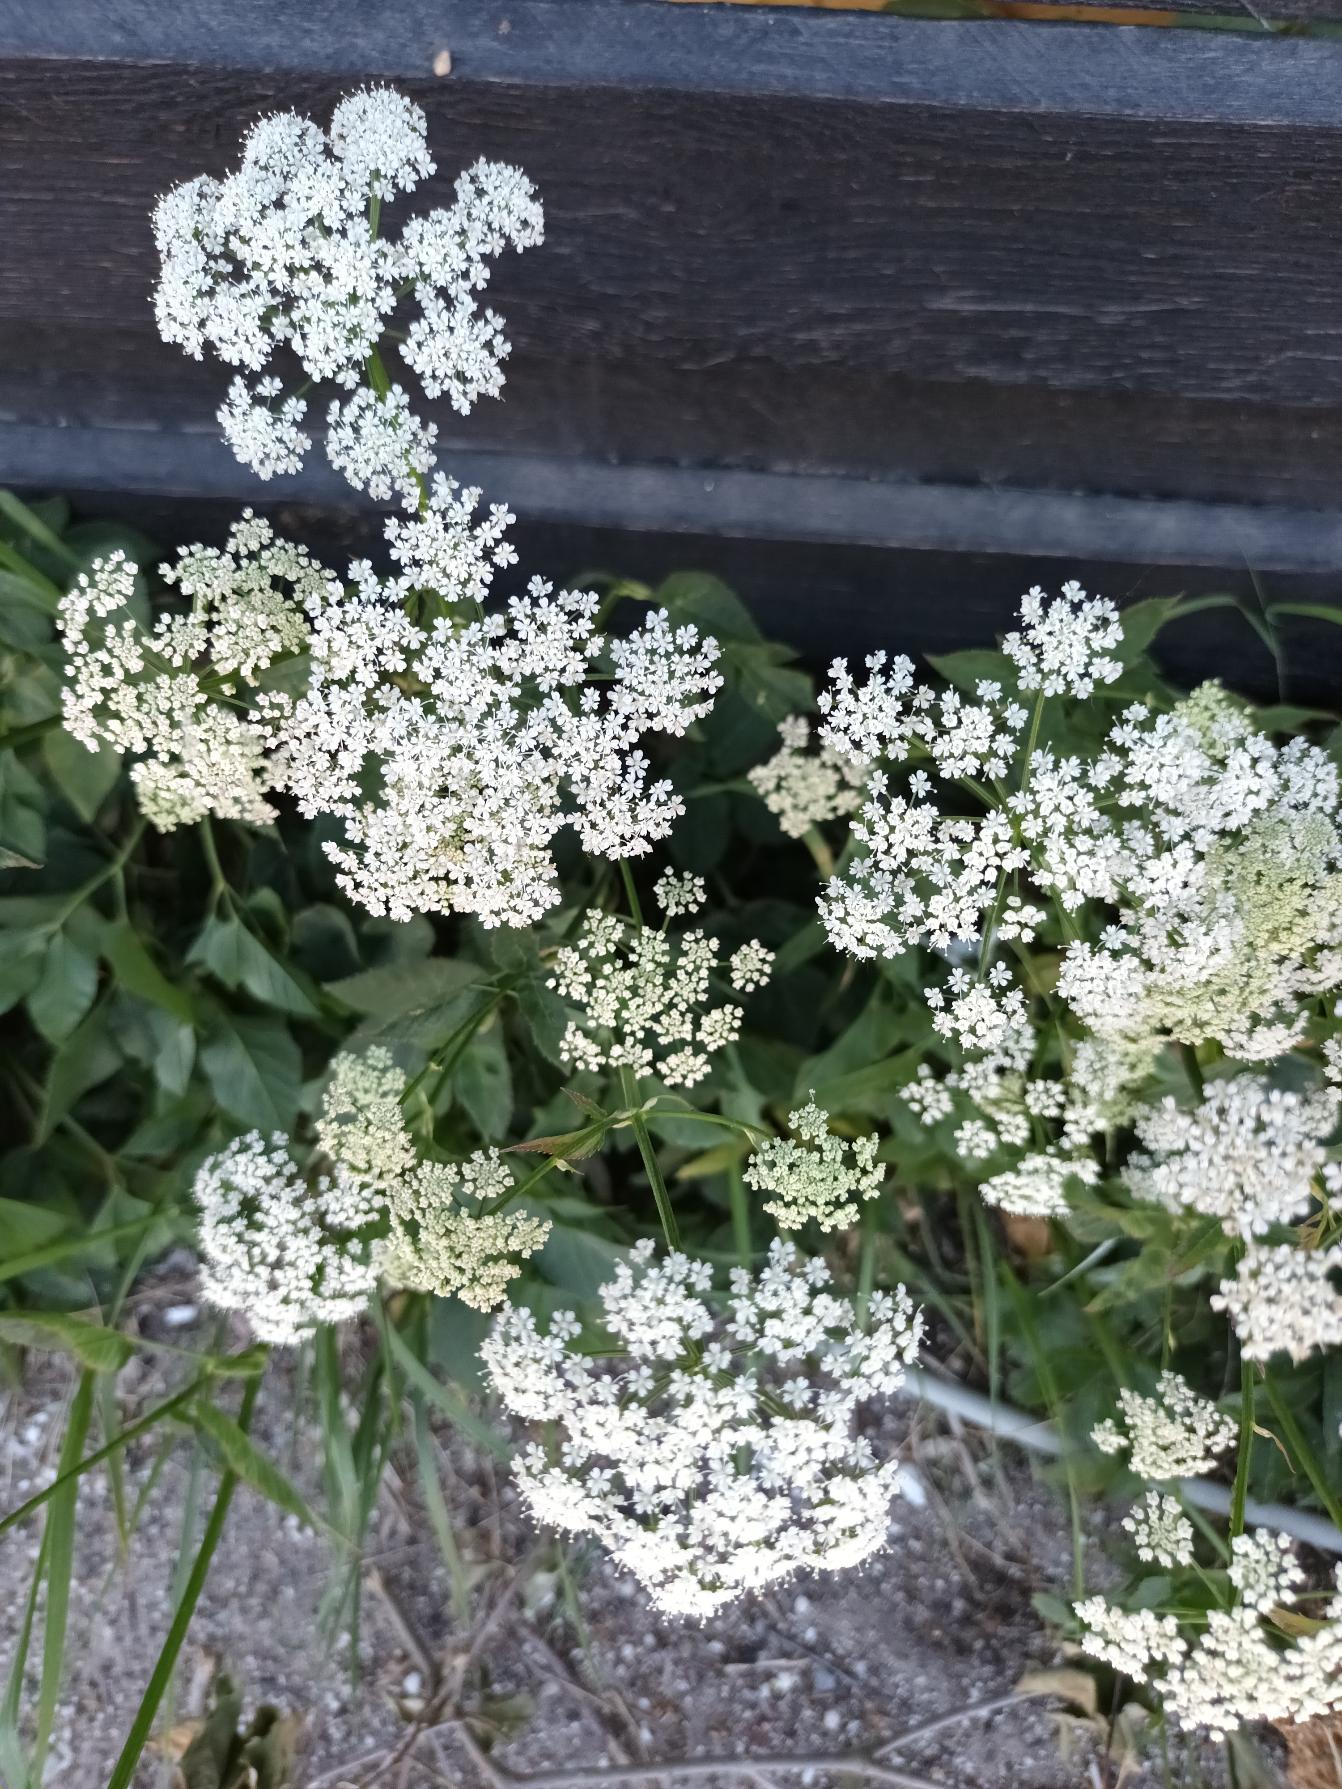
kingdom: Plantae
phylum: Tracheophyta
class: Magnoliopsida
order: Apiales
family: Apiaceae
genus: Aegopodium
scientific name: Aegopodium podagraria
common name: Skvalderkål
